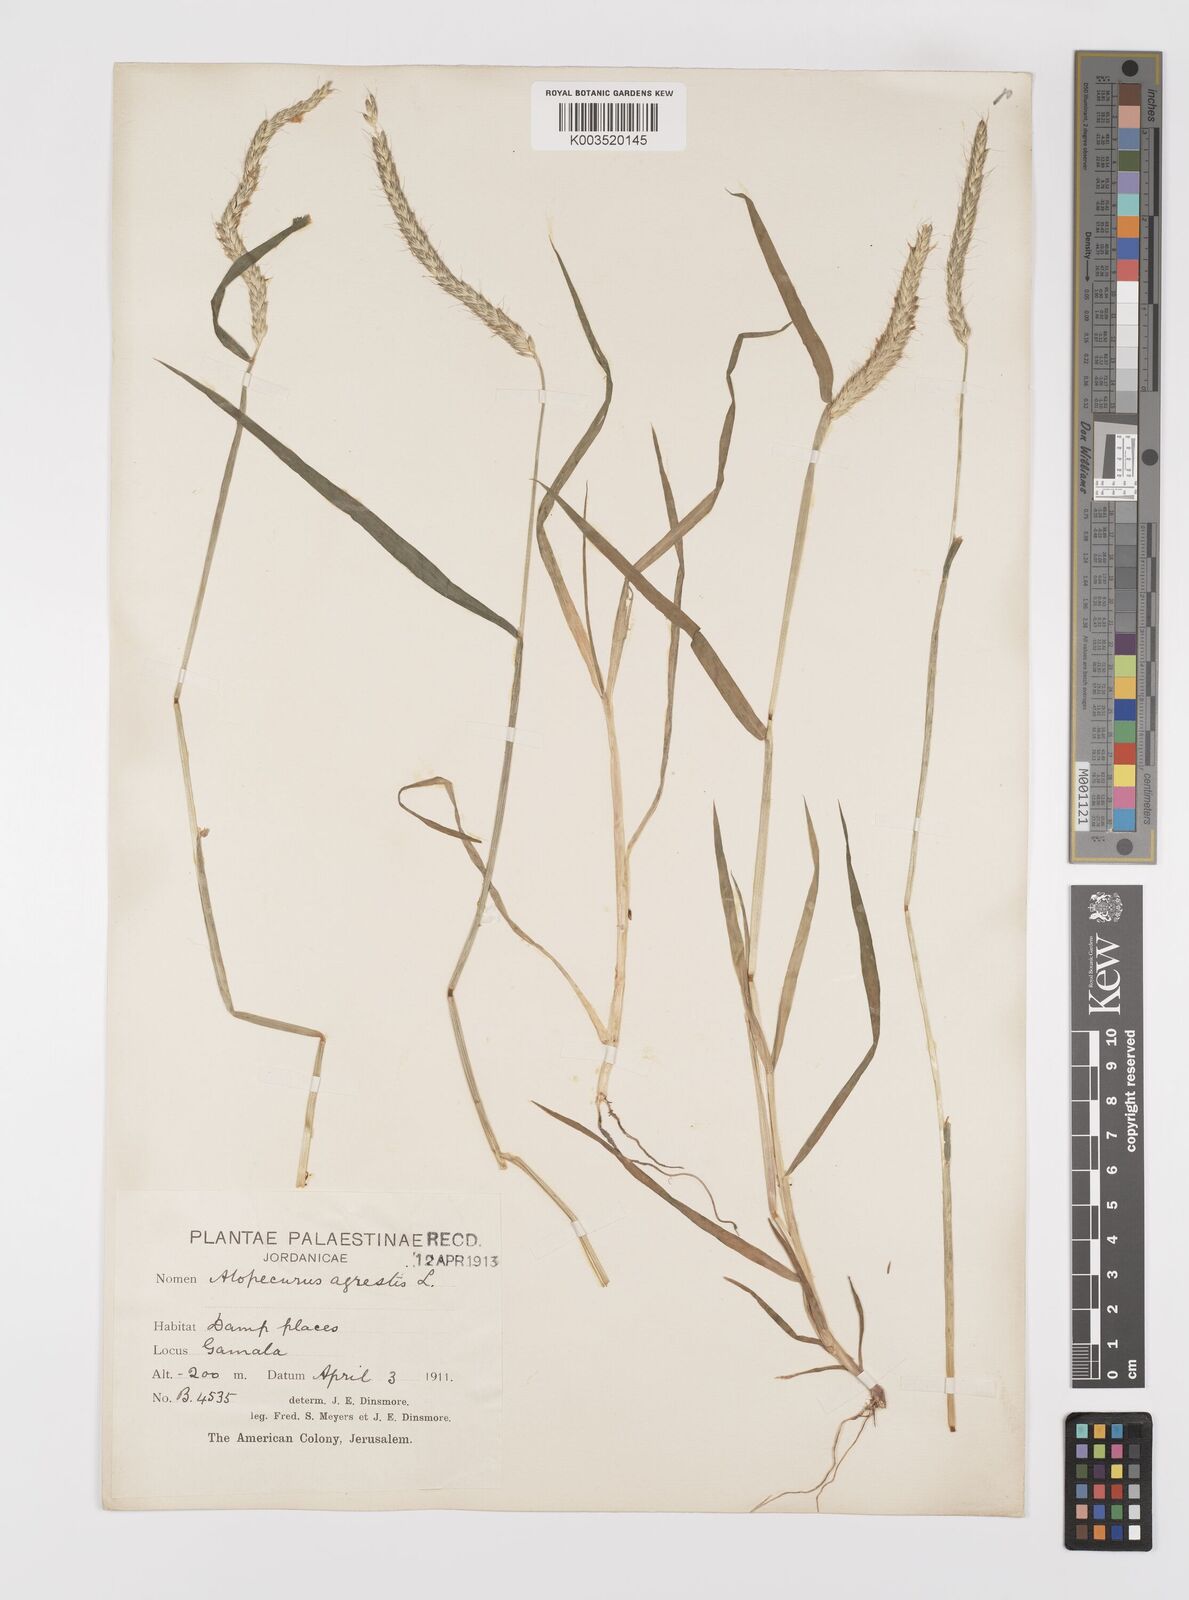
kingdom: Plantae
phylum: Tracheophyta
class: Liliopsida
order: Poales
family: Poaceae
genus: Alopecurus
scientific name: Alopecurus myosuroides
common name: Black-grass
